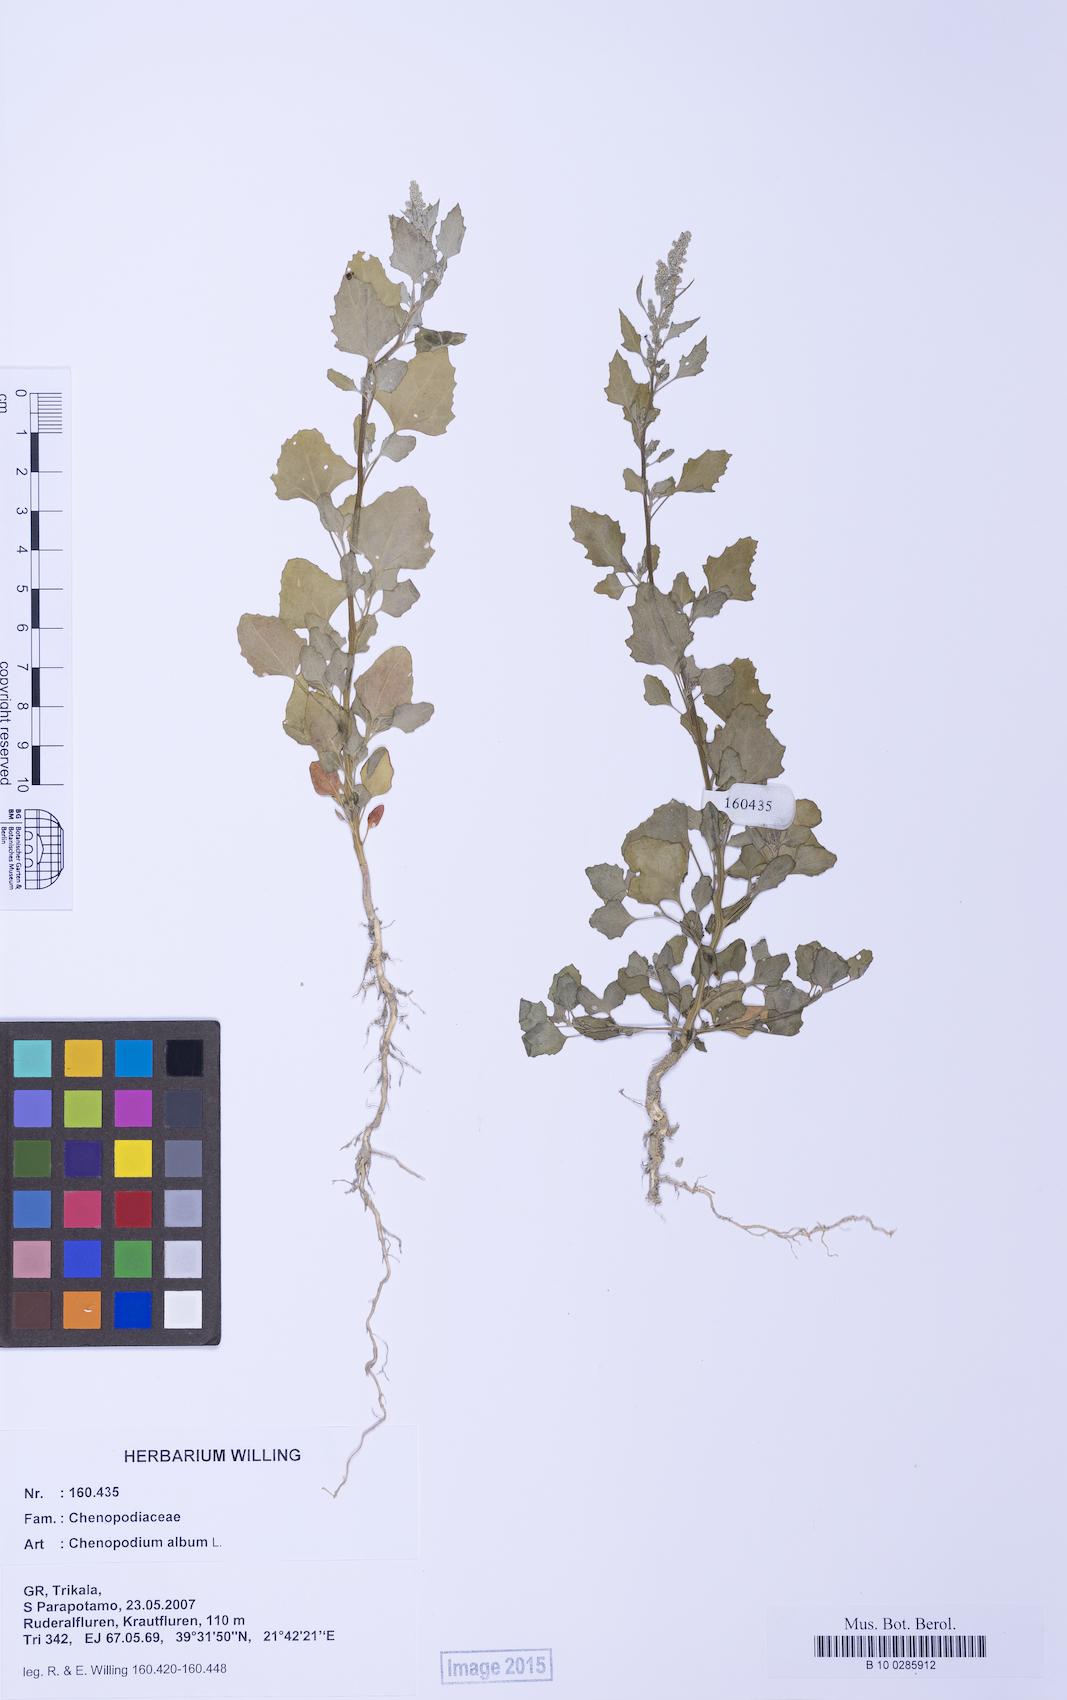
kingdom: Plantae
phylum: Tracheophyta
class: Magnoliopsida
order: Caryophyllales
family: Amaranthaceae
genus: Chenopodium
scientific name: Chenopodium album
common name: Fat-hen
